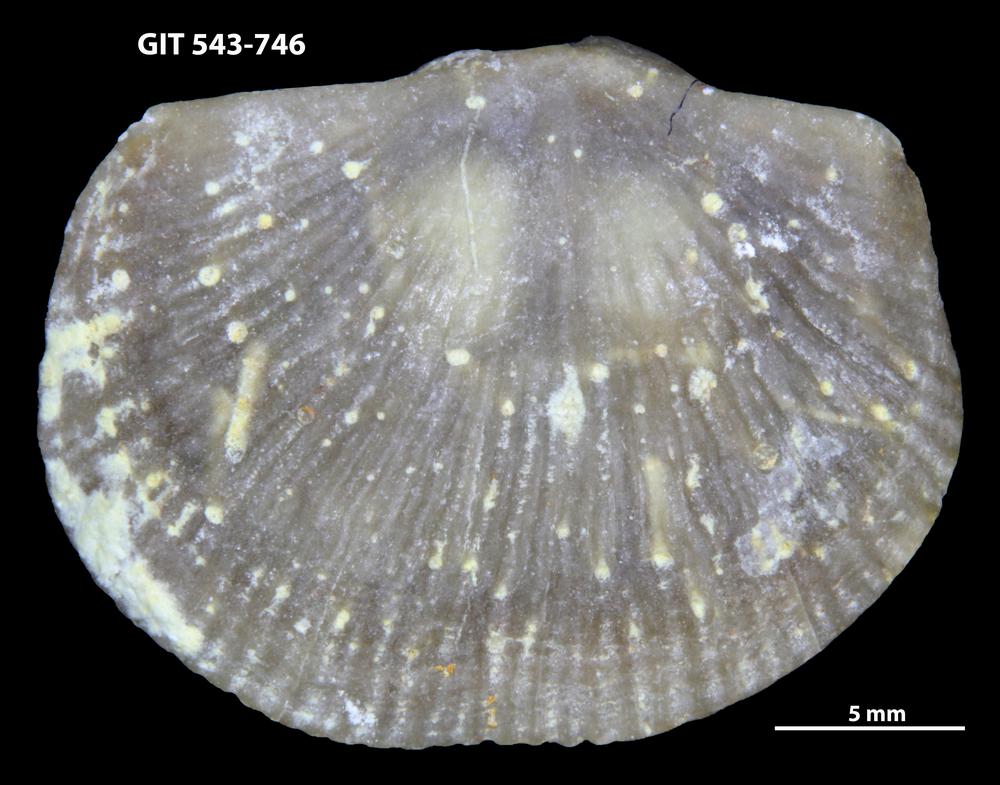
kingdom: Animalia
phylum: Brachiopoda
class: Rhynchonellata
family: Clitambonitidae
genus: Vellamo
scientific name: Vellamo oandoensis
